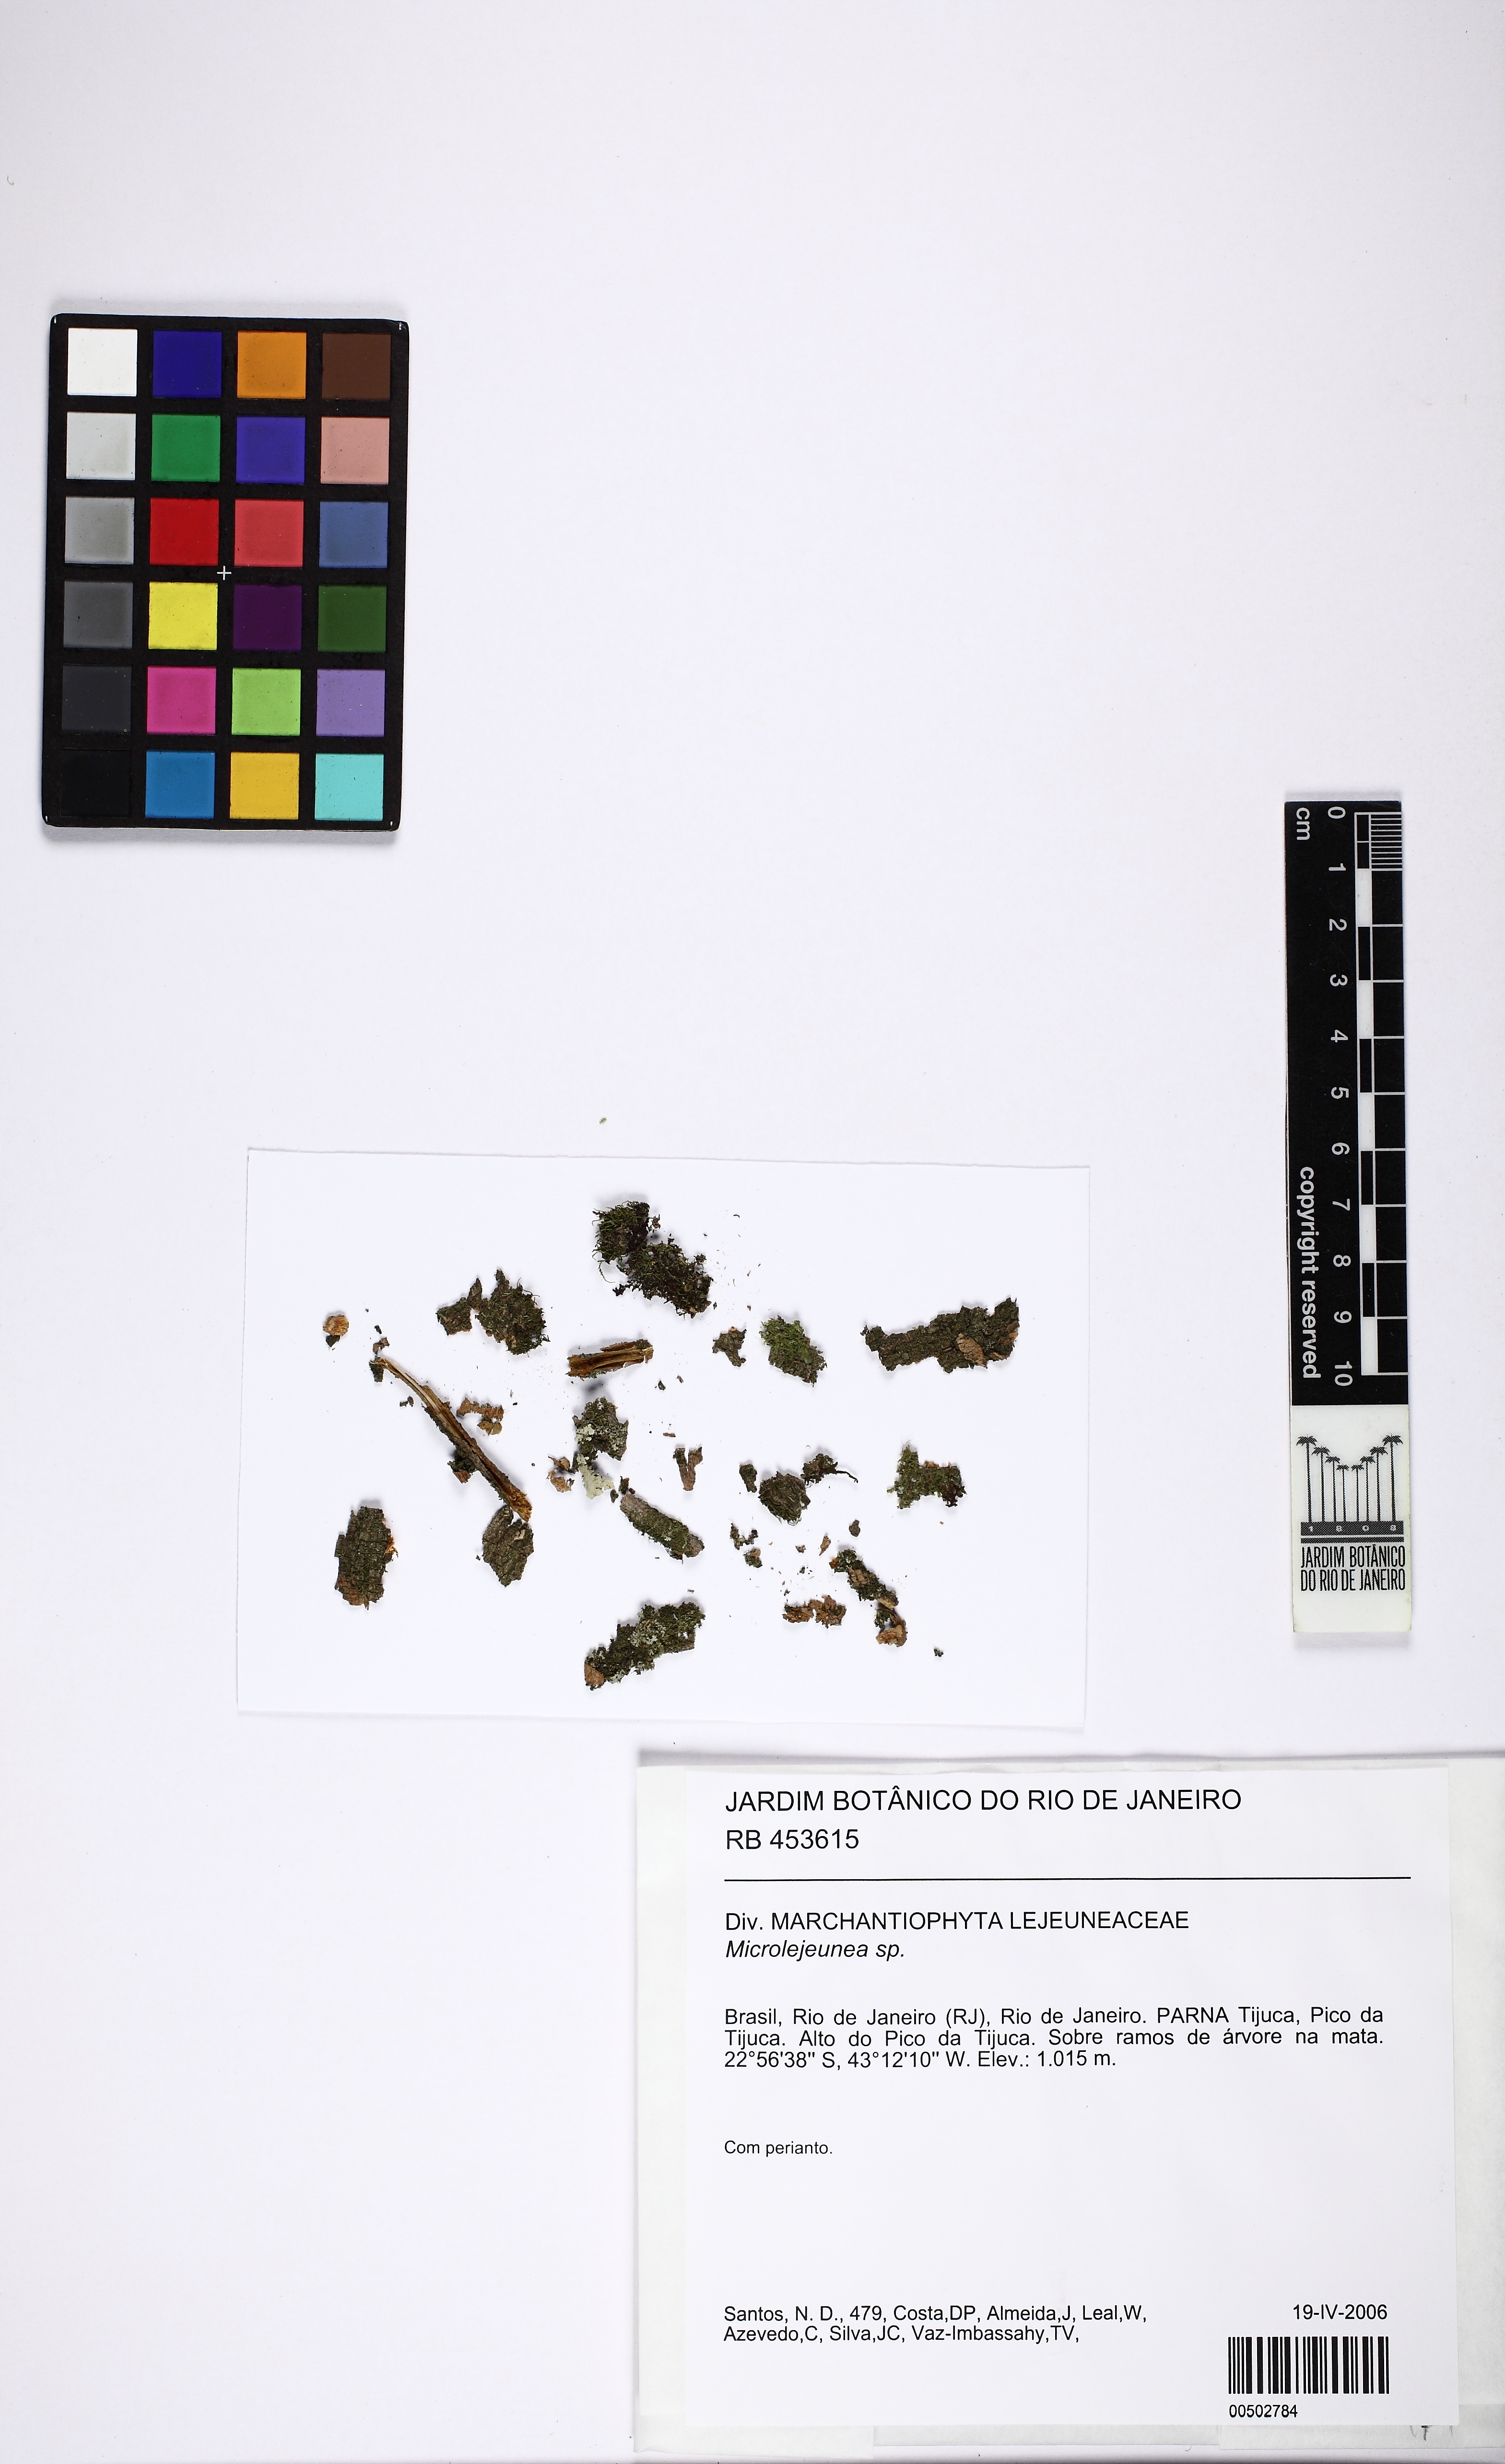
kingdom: Plantae
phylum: Marchantiophyta
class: Jungermanniopsida
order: Porellales
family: Lejeuneaceae
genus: Microlejeunea
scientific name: Microlejeunea
